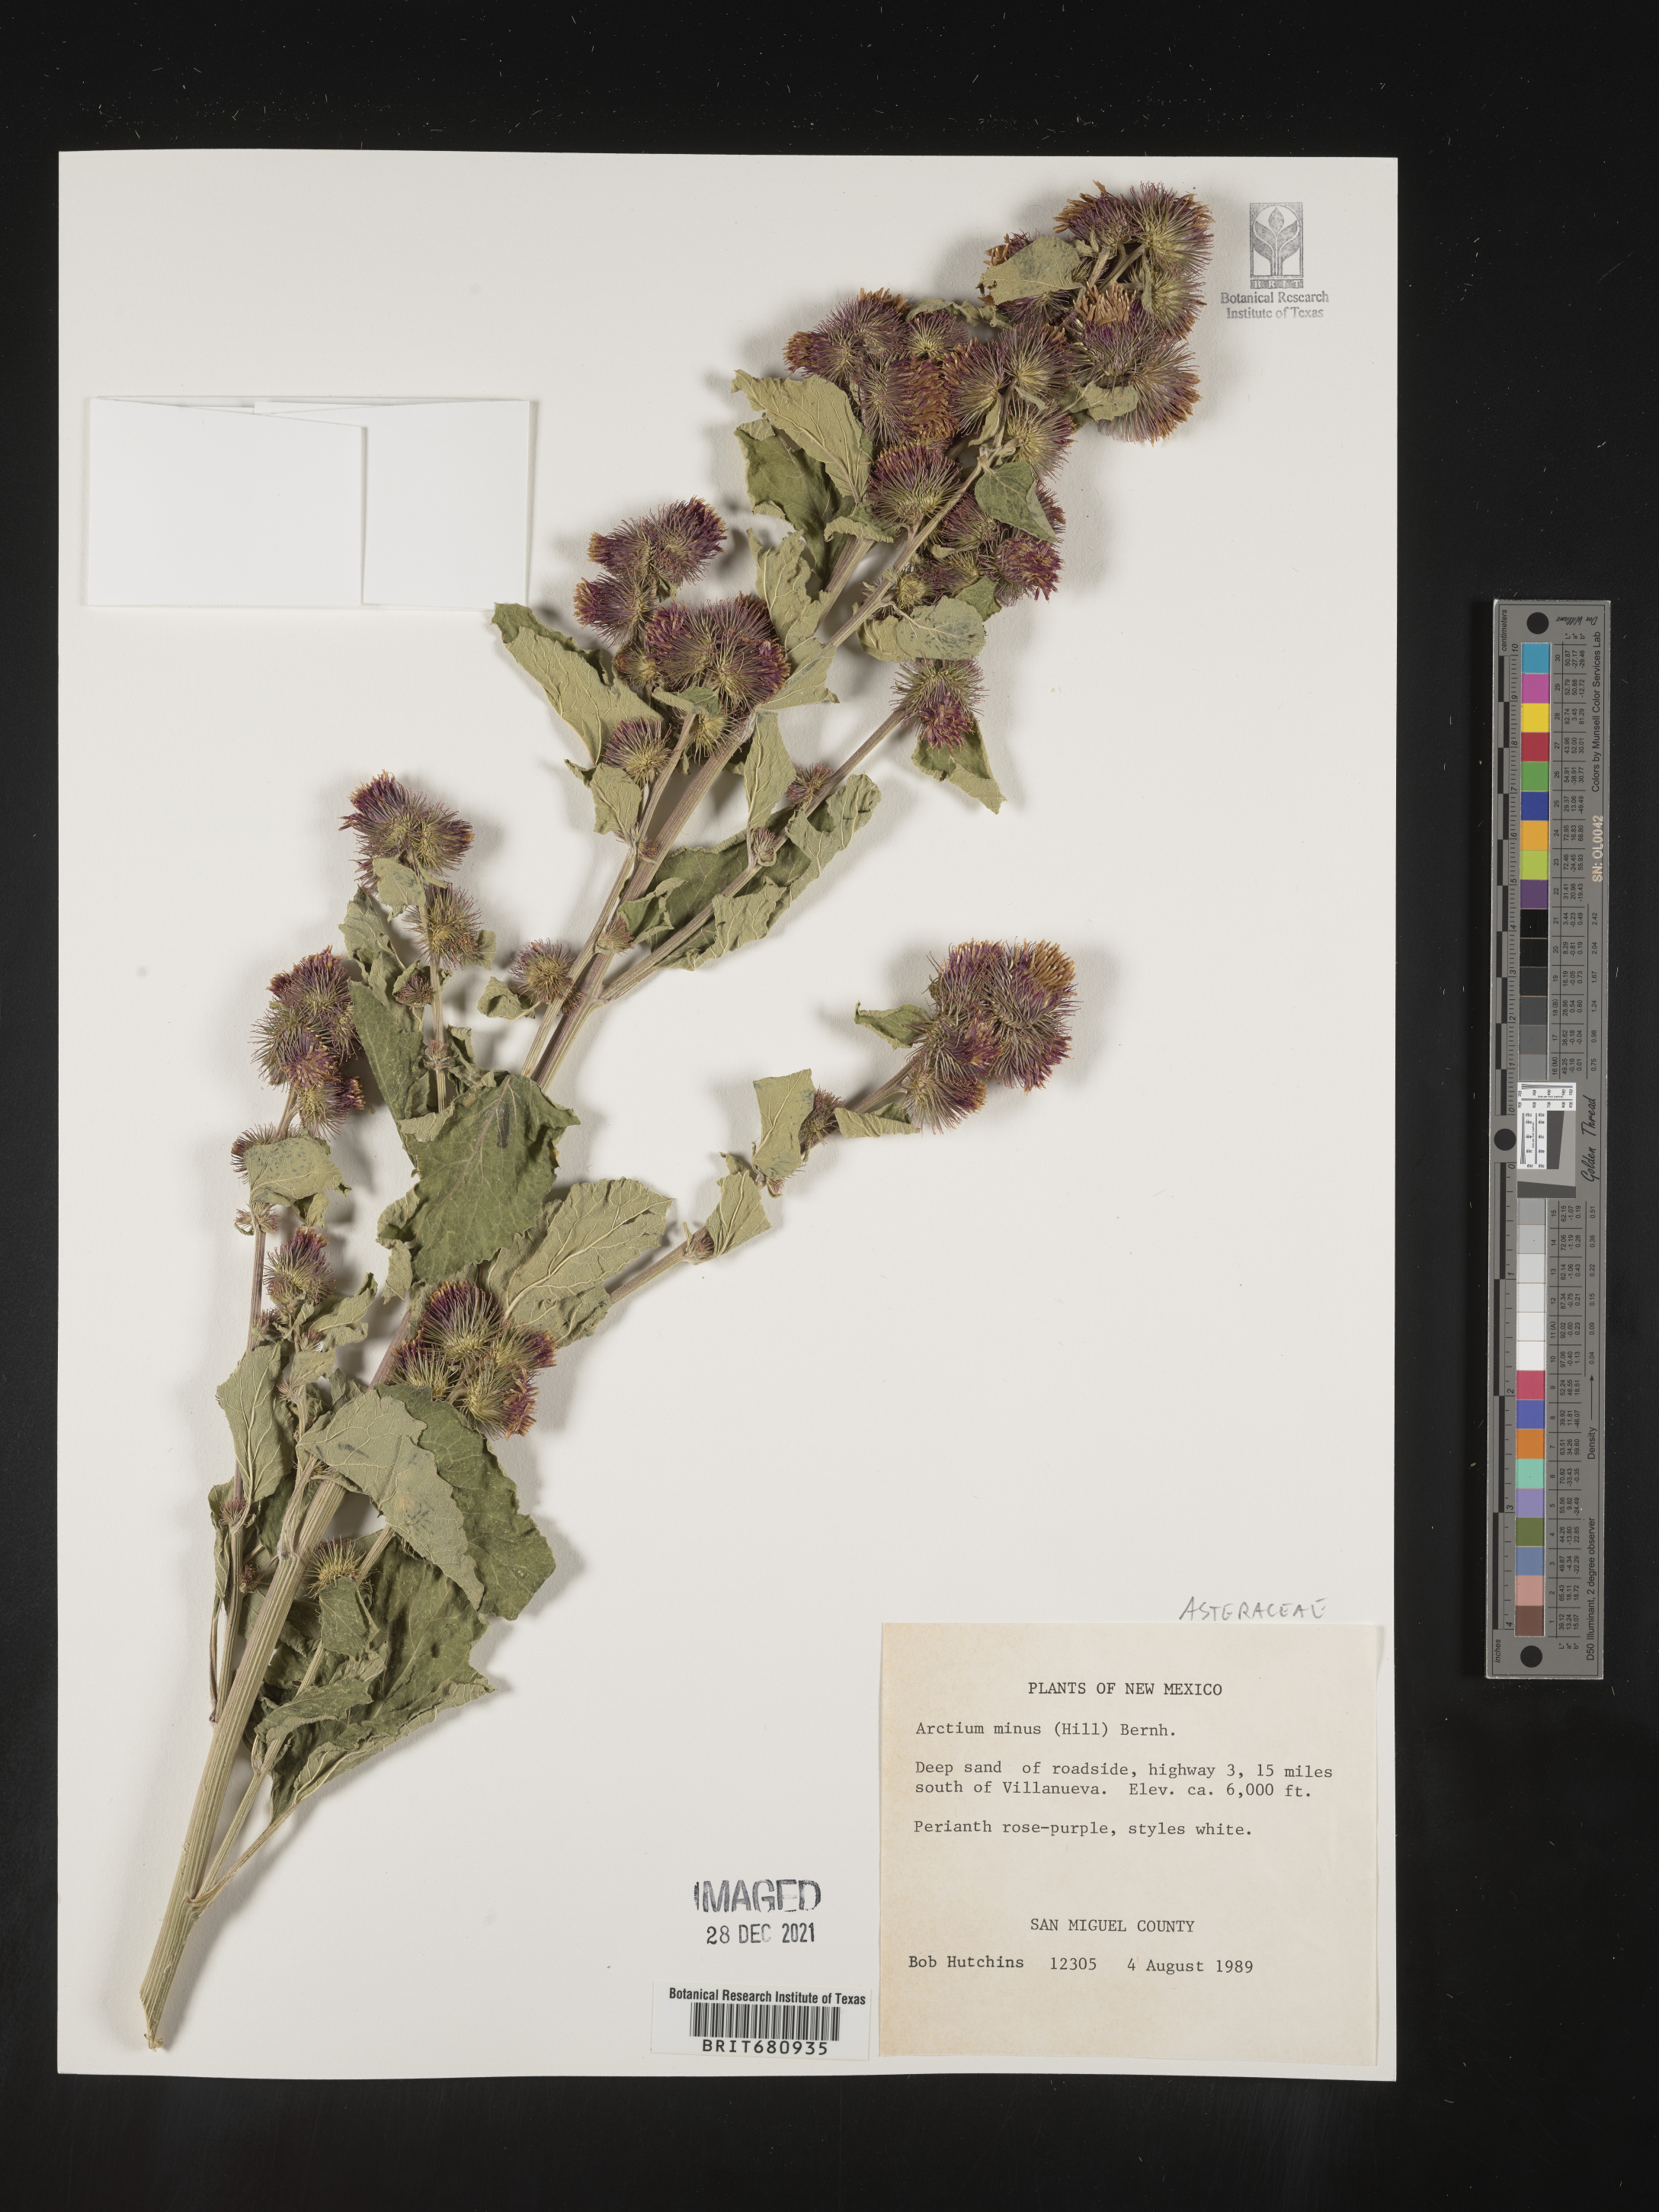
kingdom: Plantae
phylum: Tracheophyta
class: Magnoliopsida
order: Asterales
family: Asteraceae
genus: Arctium
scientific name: Arctium minus
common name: Lesser burdock
